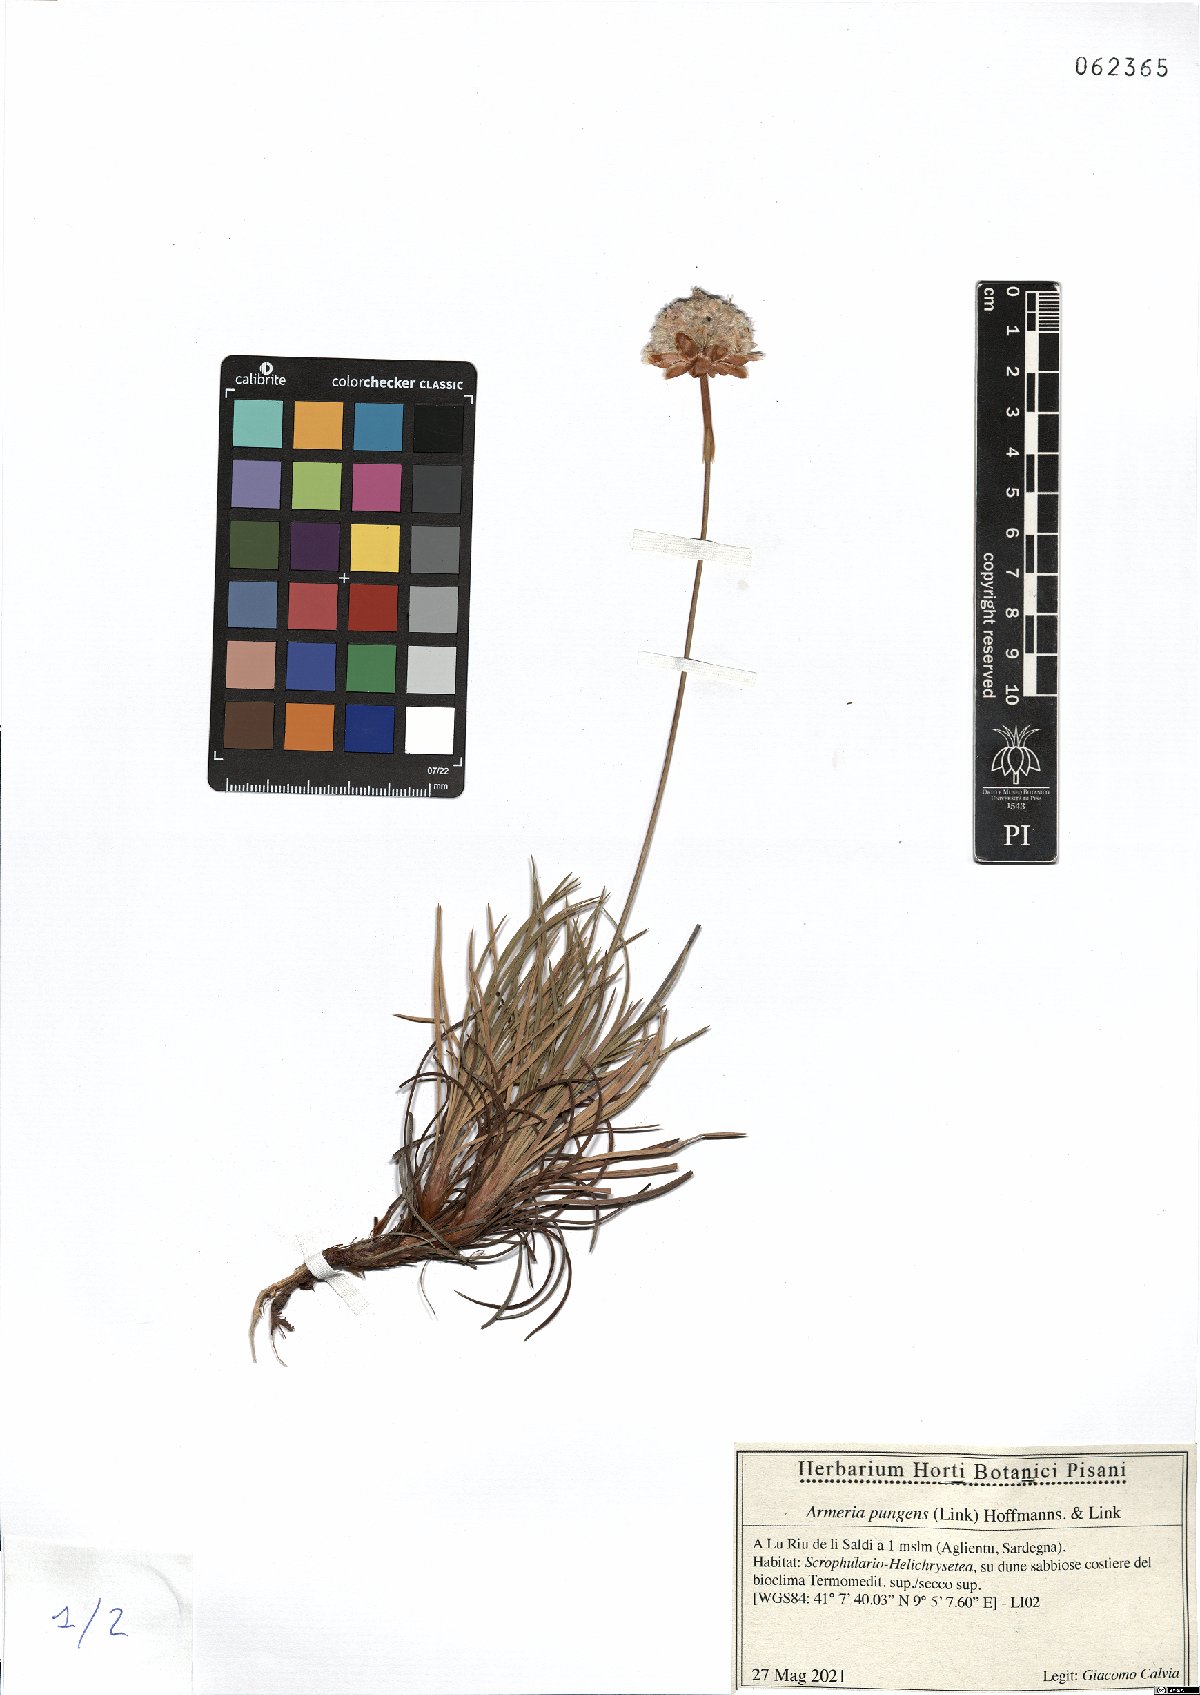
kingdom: Plantae
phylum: Tracheophyta
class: Magnoliopsida
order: Caryophyllales
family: Plumbaginaceae
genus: Armeria
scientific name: Armeria pungens
